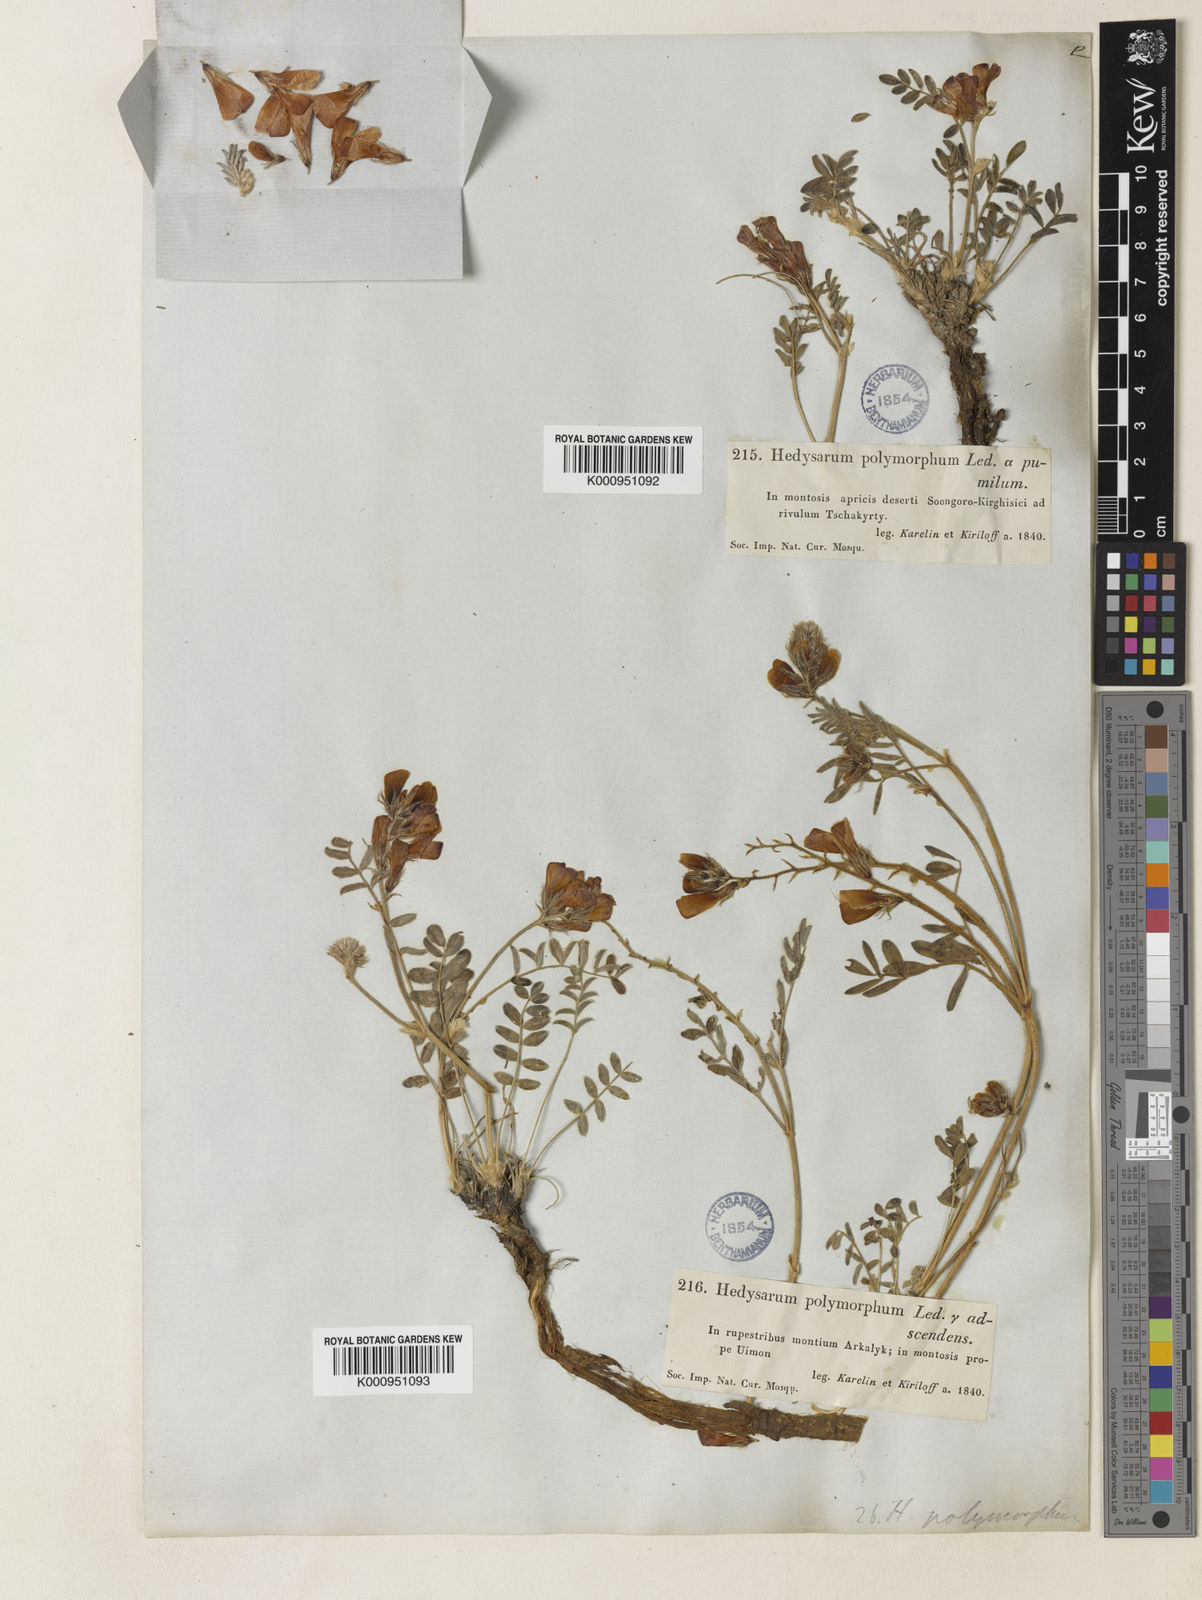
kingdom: Plantae
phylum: Tracheophyta
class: Magnoliopsida
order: Fabales
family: Fabaceae
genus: Hedysarum
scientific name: Hedysarum gmelinii
